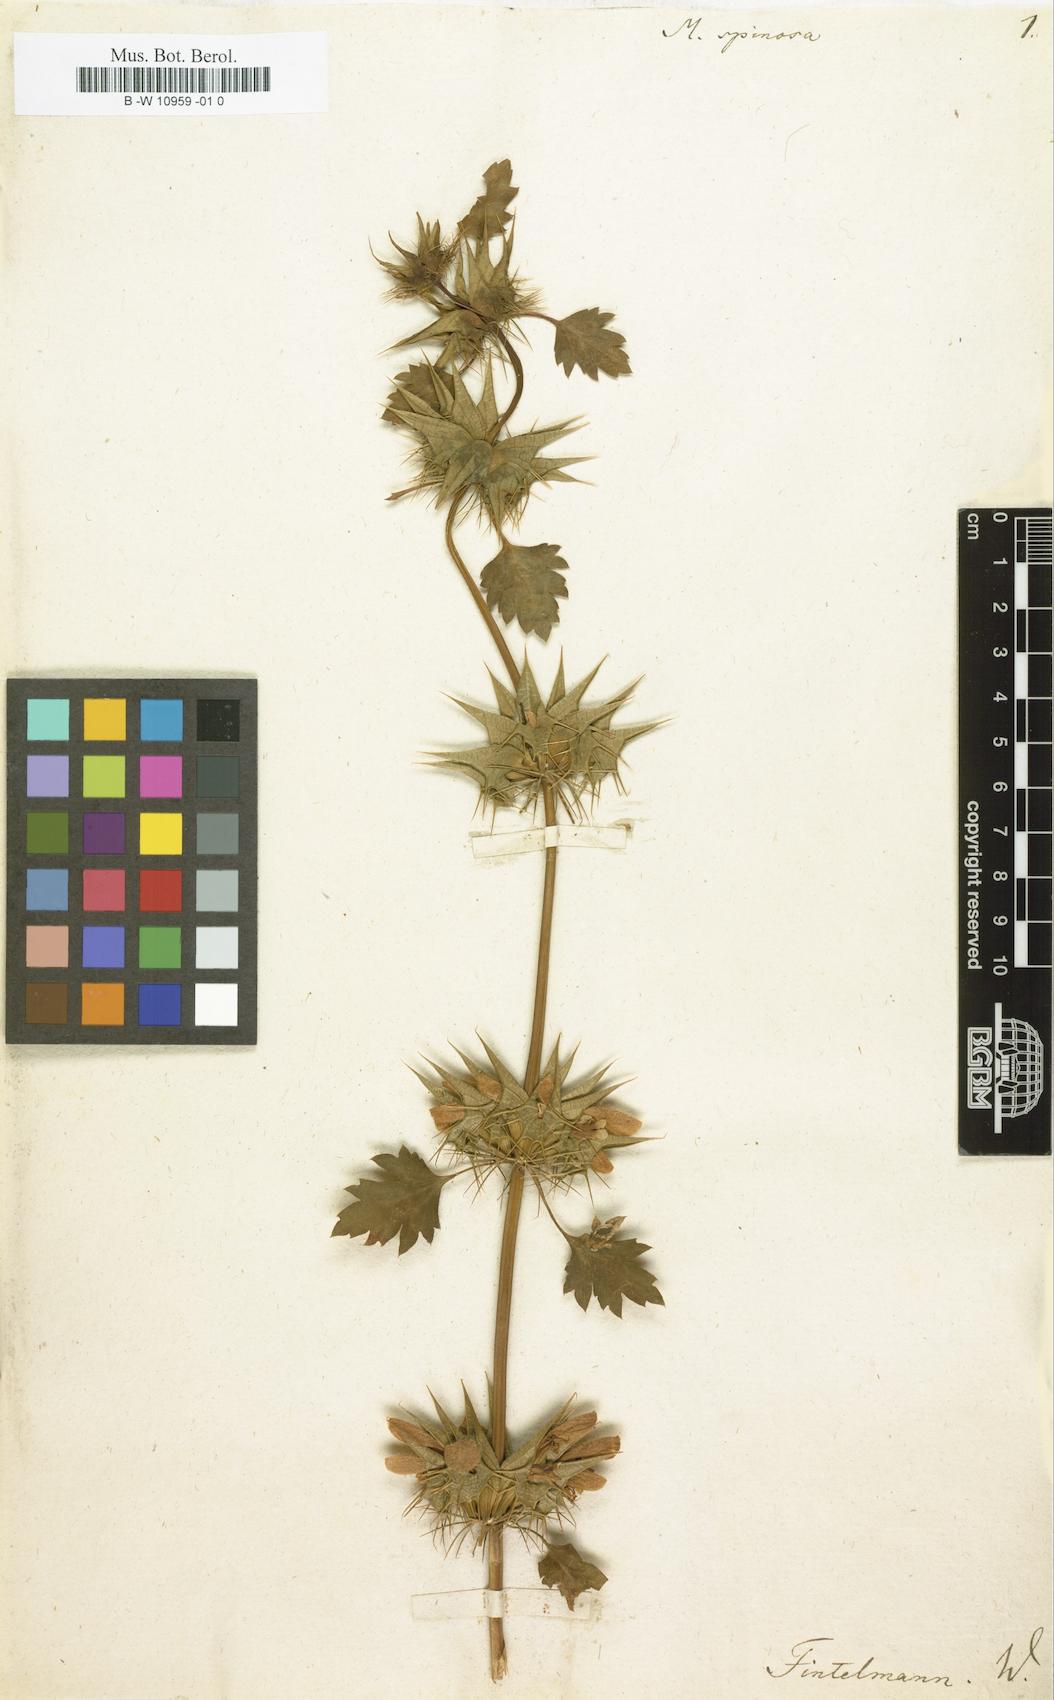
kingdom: Plantae
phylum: Tracheophyta
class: Magnoliopsida
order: Lamiales
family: Lamiaceae
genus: Moluccella
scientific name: Moluccella spinosa
